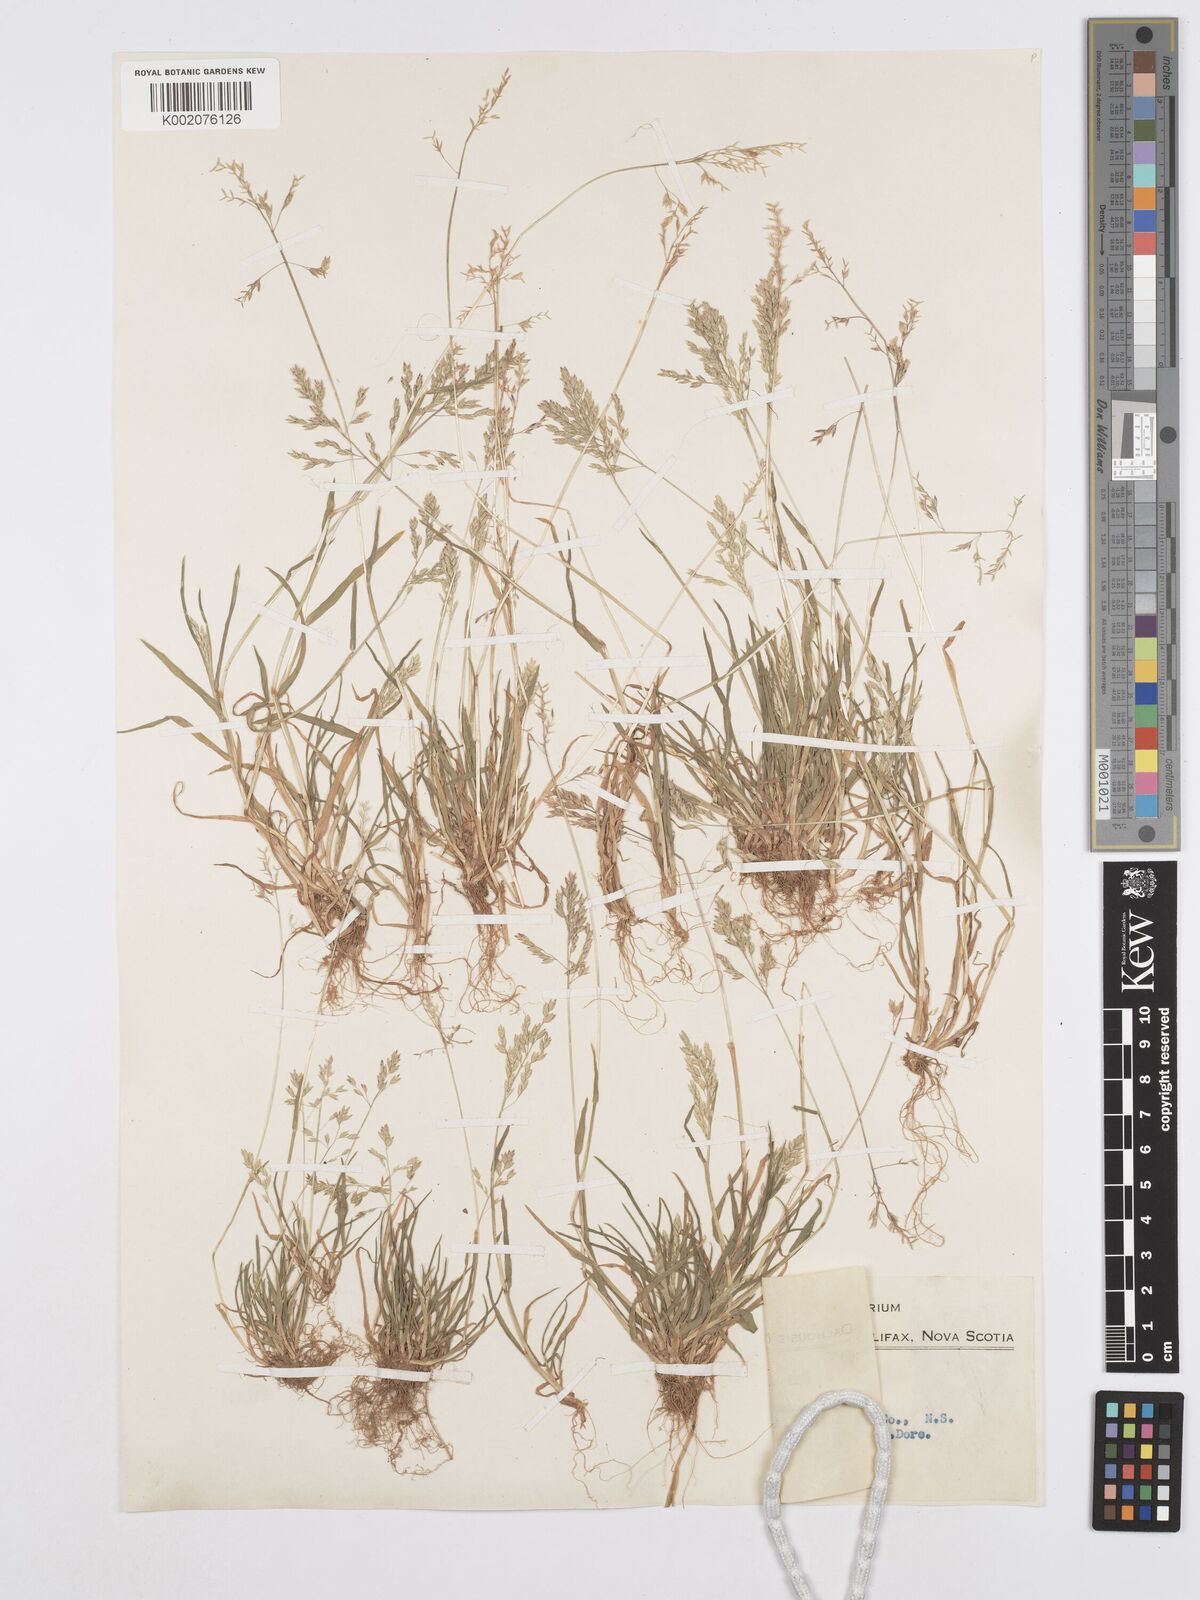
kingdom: Plantae
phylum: Tracheophyta
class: Liliopsida
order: Poales
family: Poaceae
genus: Poa
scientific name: Poa annua
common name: Annual bluegrass
